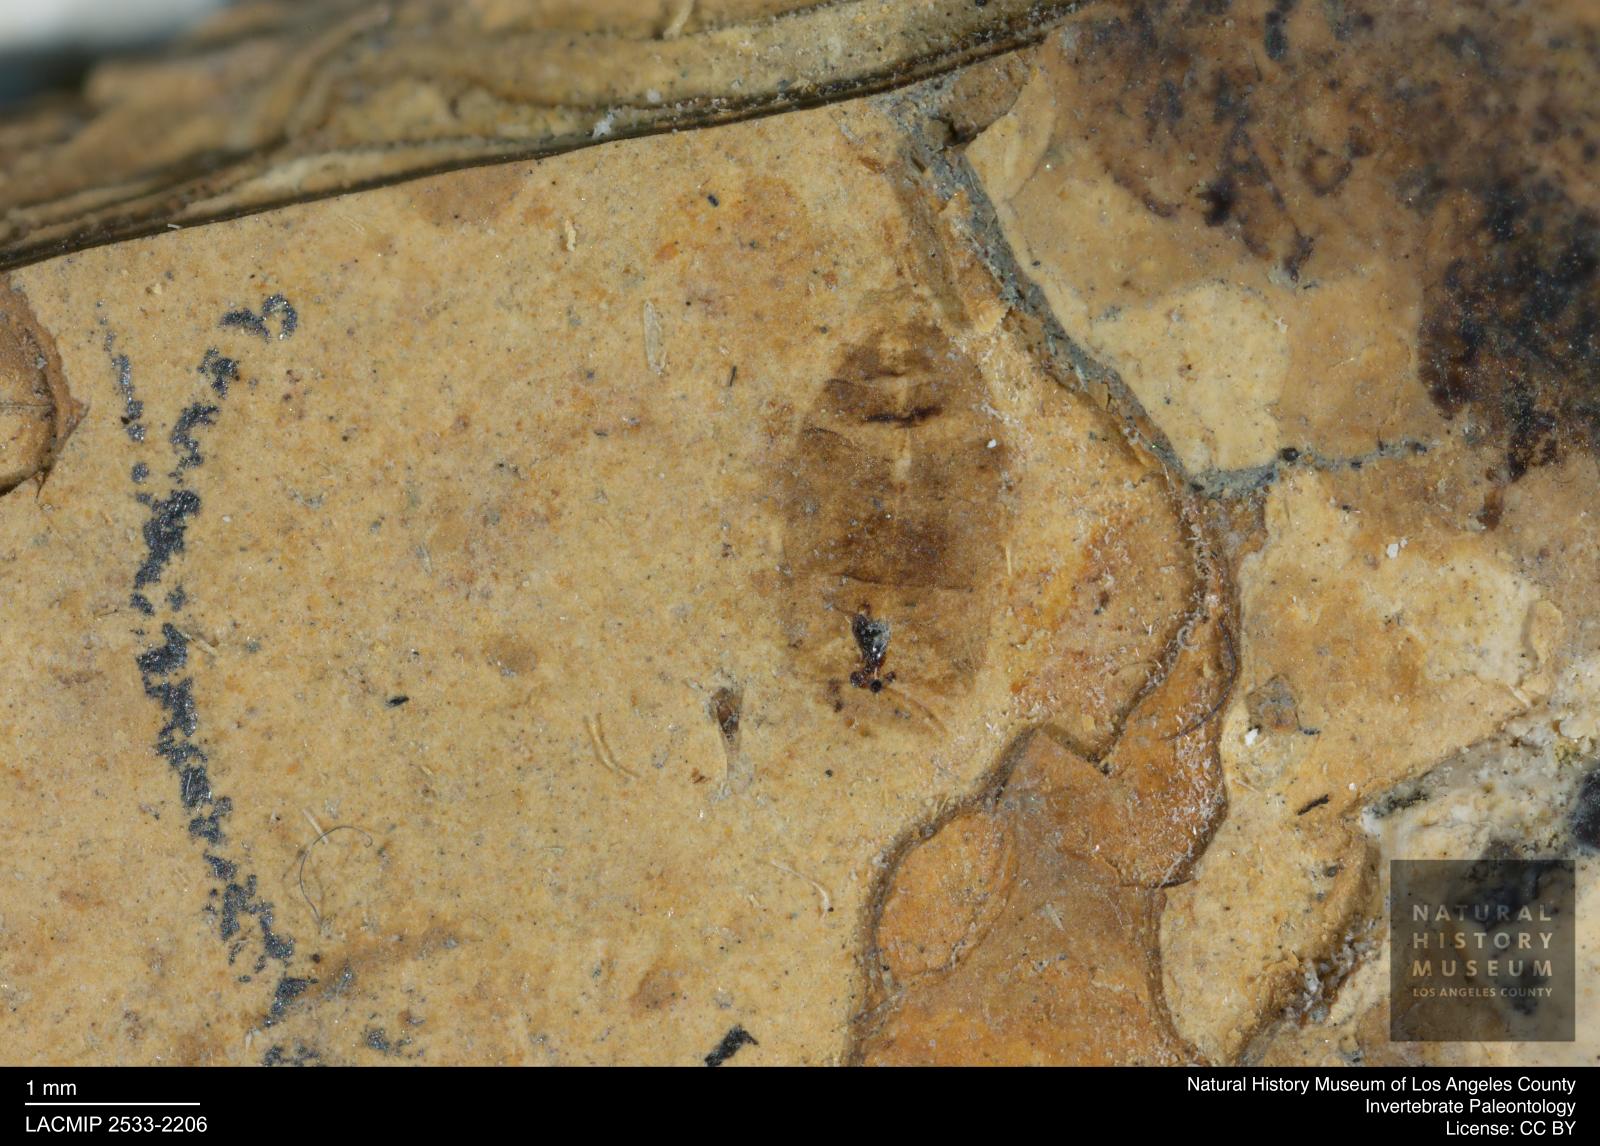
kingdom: Animalia
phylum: Arthropoda
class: Insecta
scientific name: Insecta
